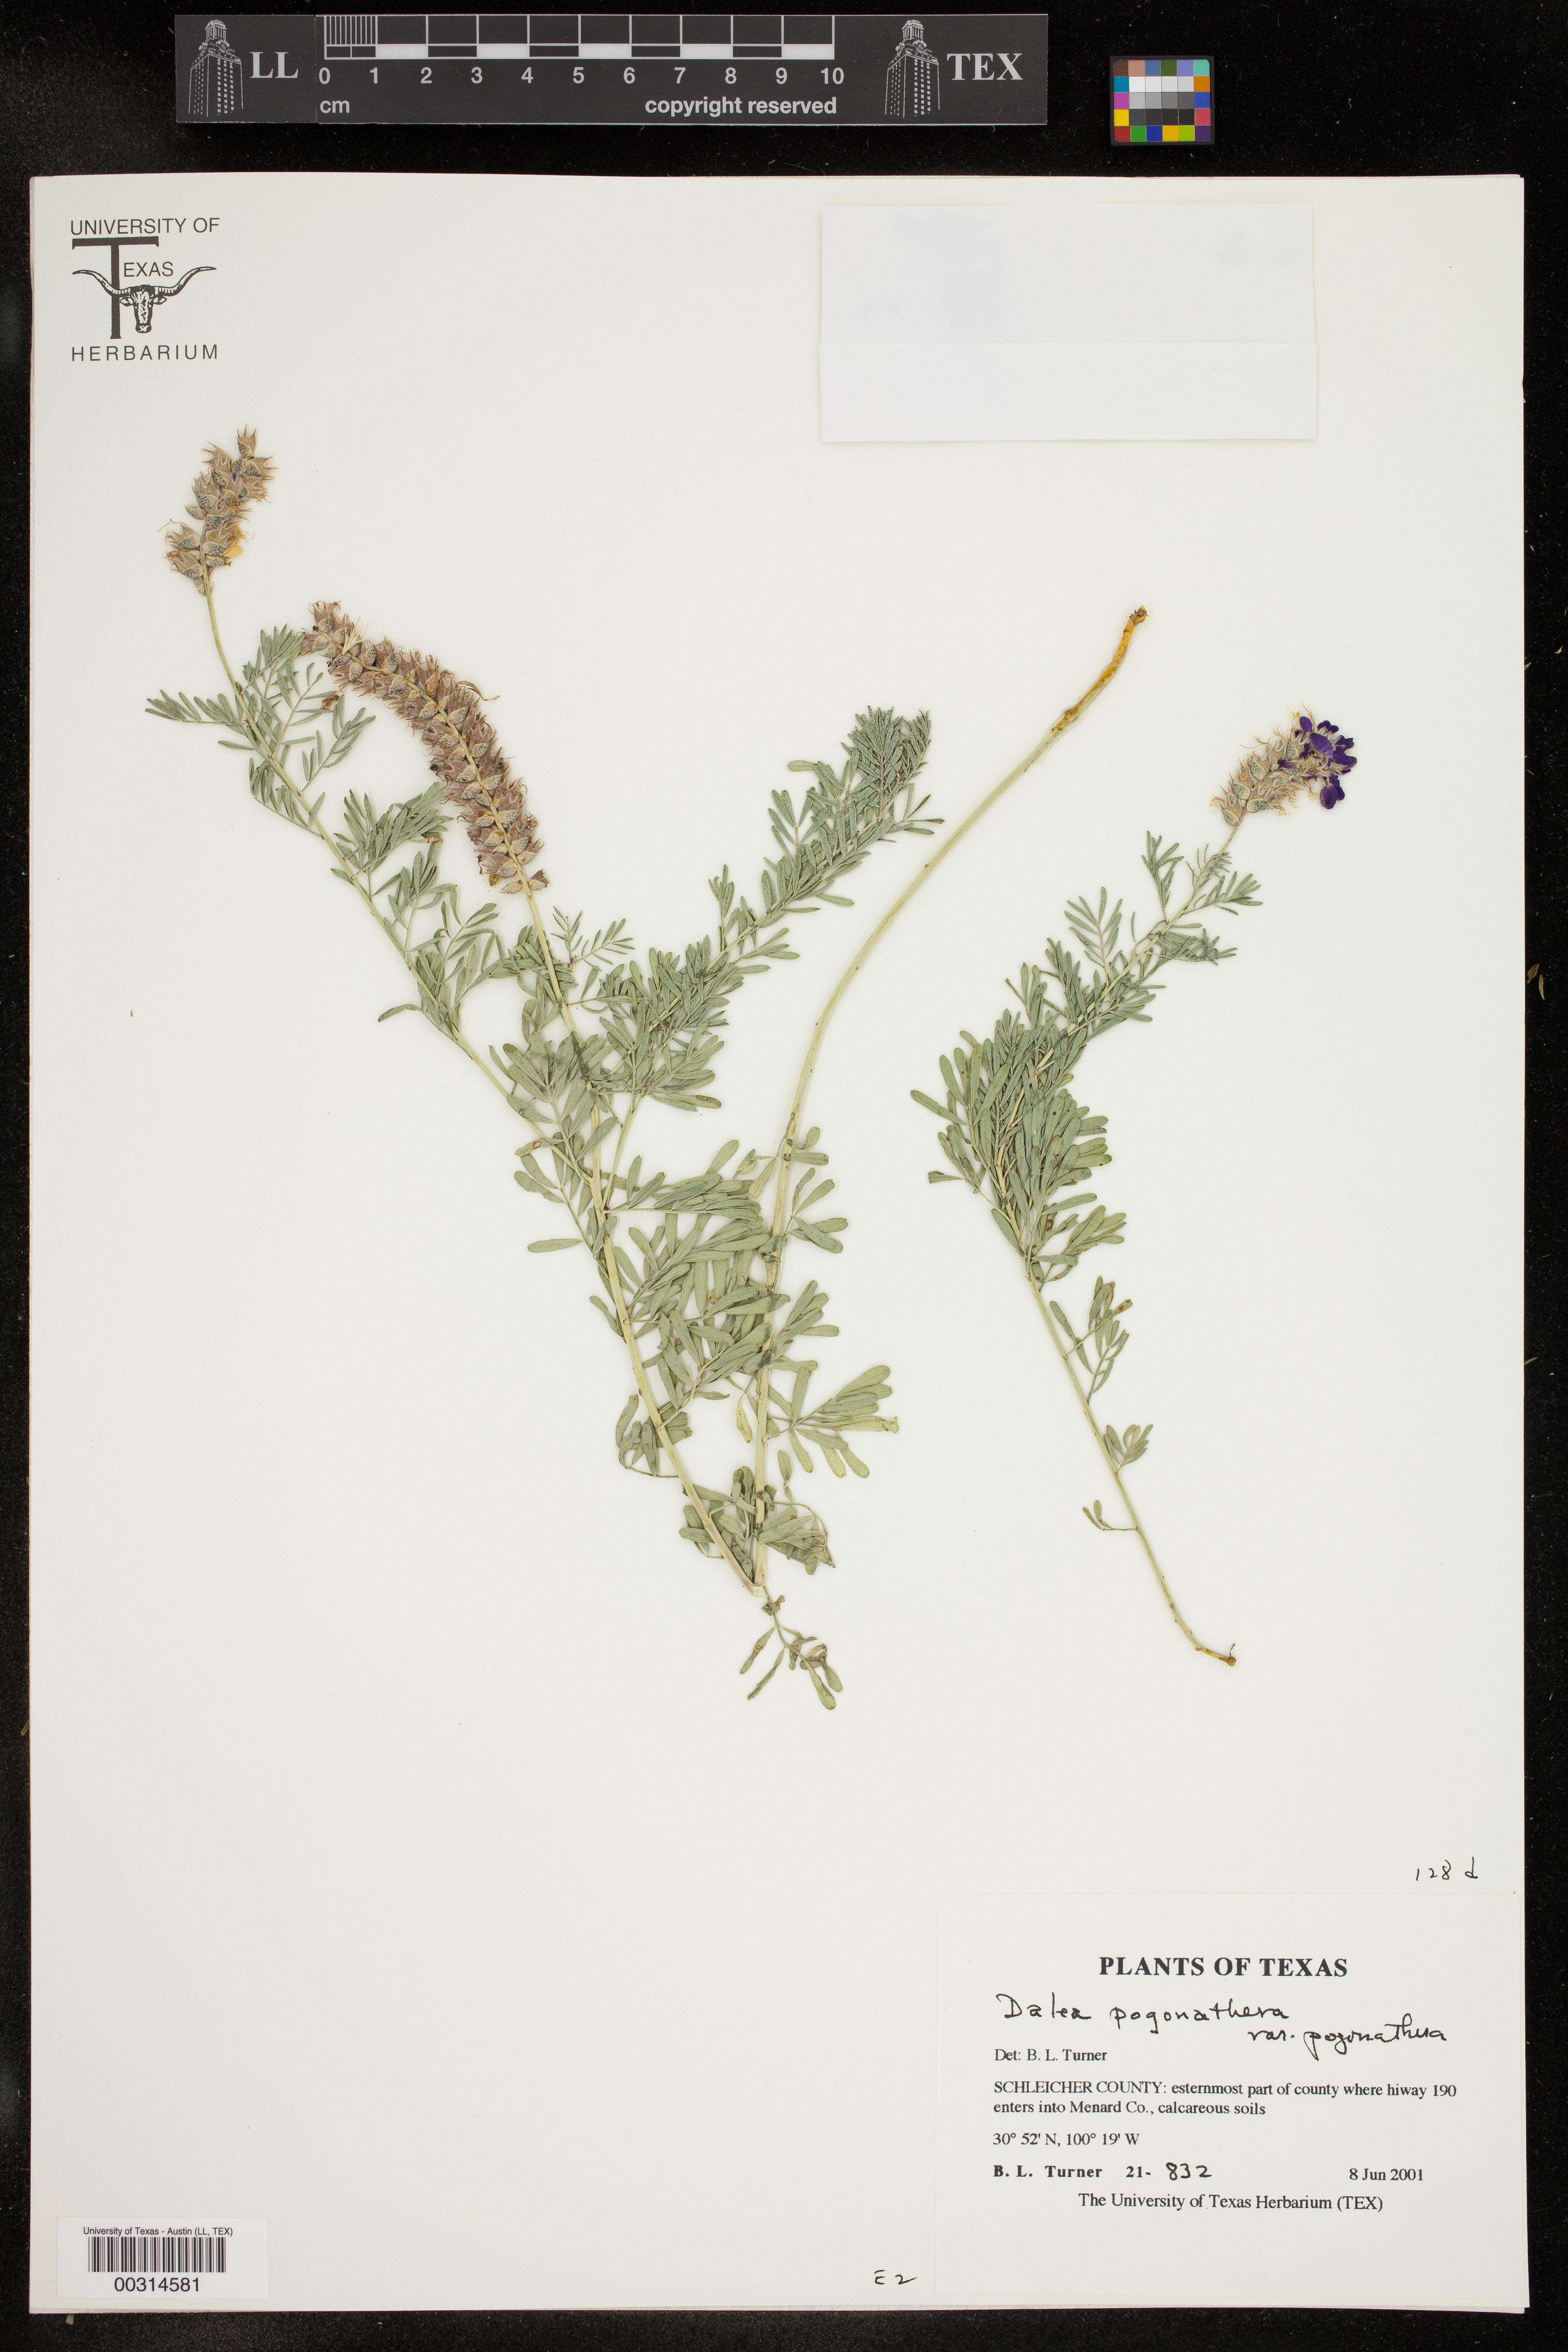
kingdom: Plantae
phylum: Tracheophyta
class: Magnoliopsida
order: Fabales
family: Fabaceae
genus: Dalea
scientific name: Dalea pogonathera
